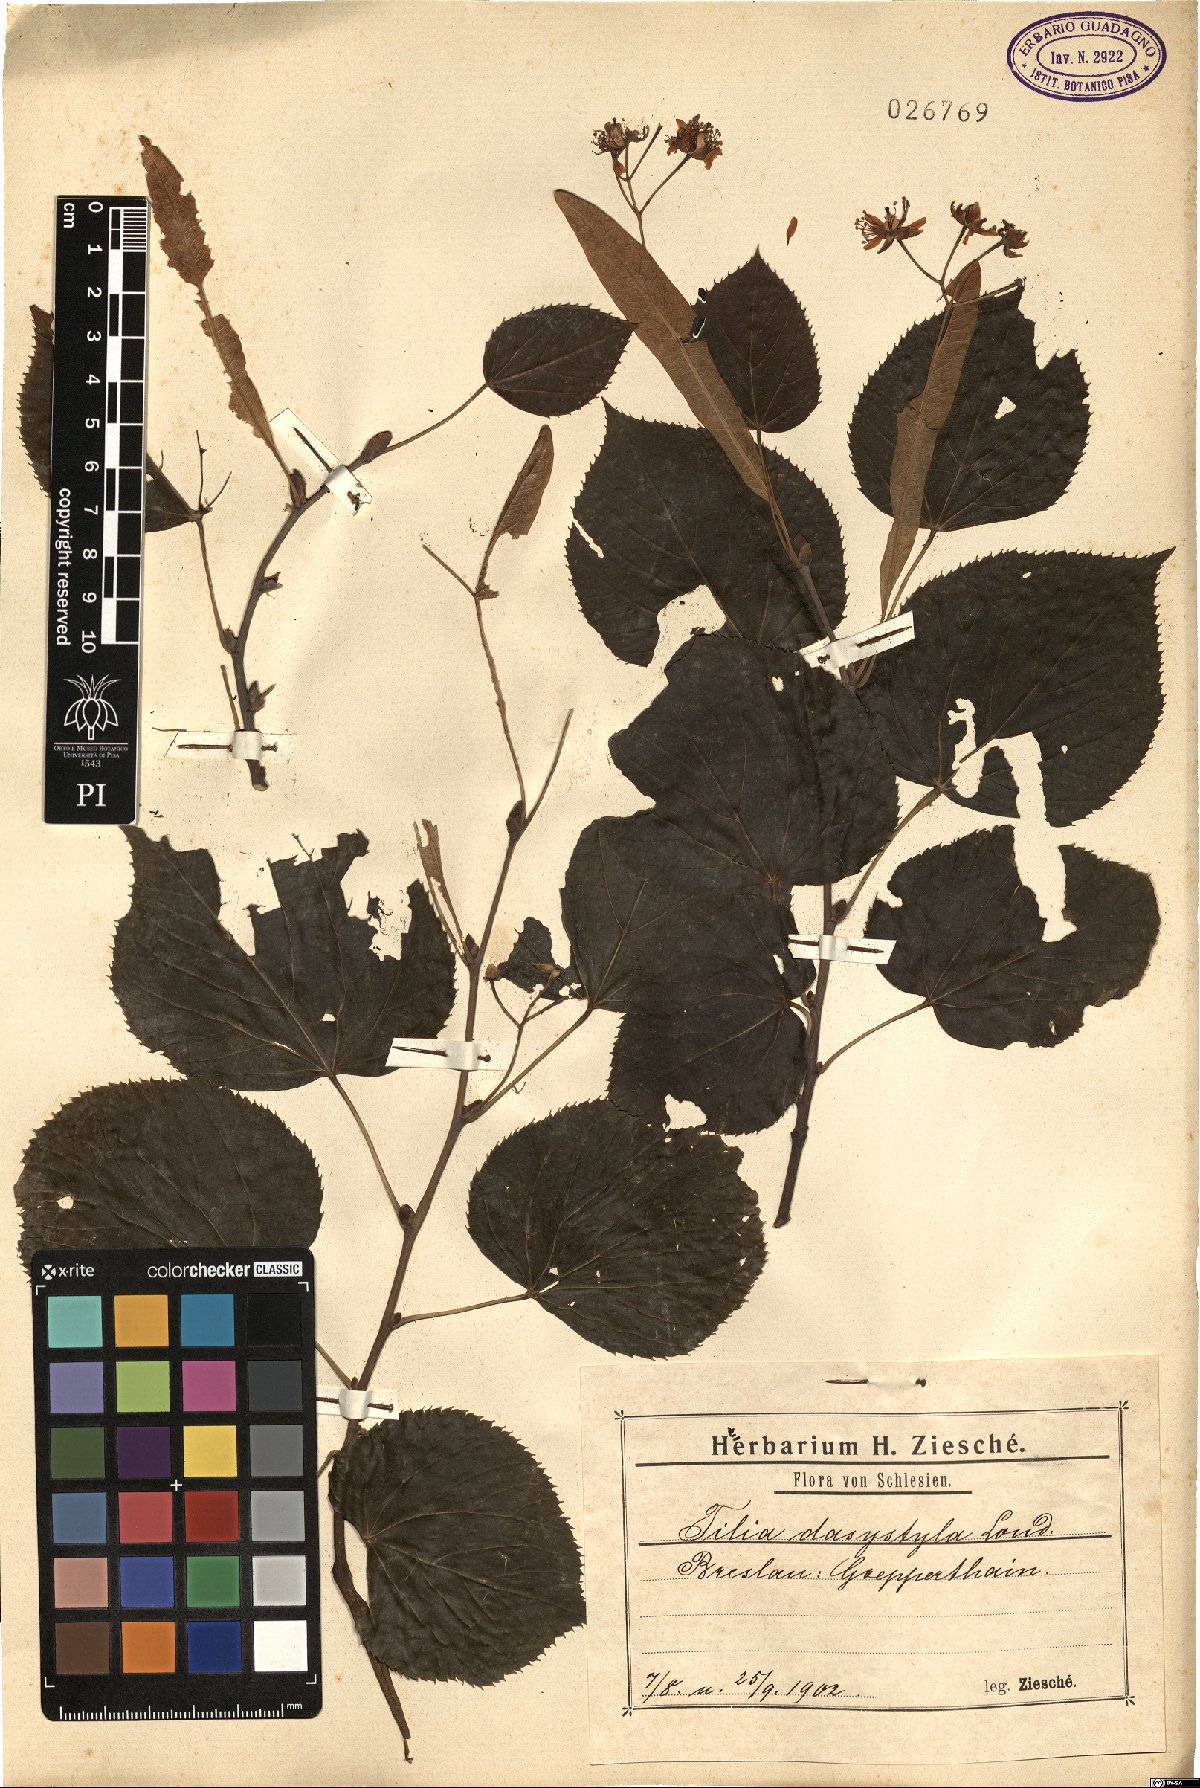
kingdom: Plantae
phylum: Tracheophyta
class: Magnoliopsida
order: Malvales
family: Malvaceae
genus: Tilia
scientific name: Tilia dasystyla
